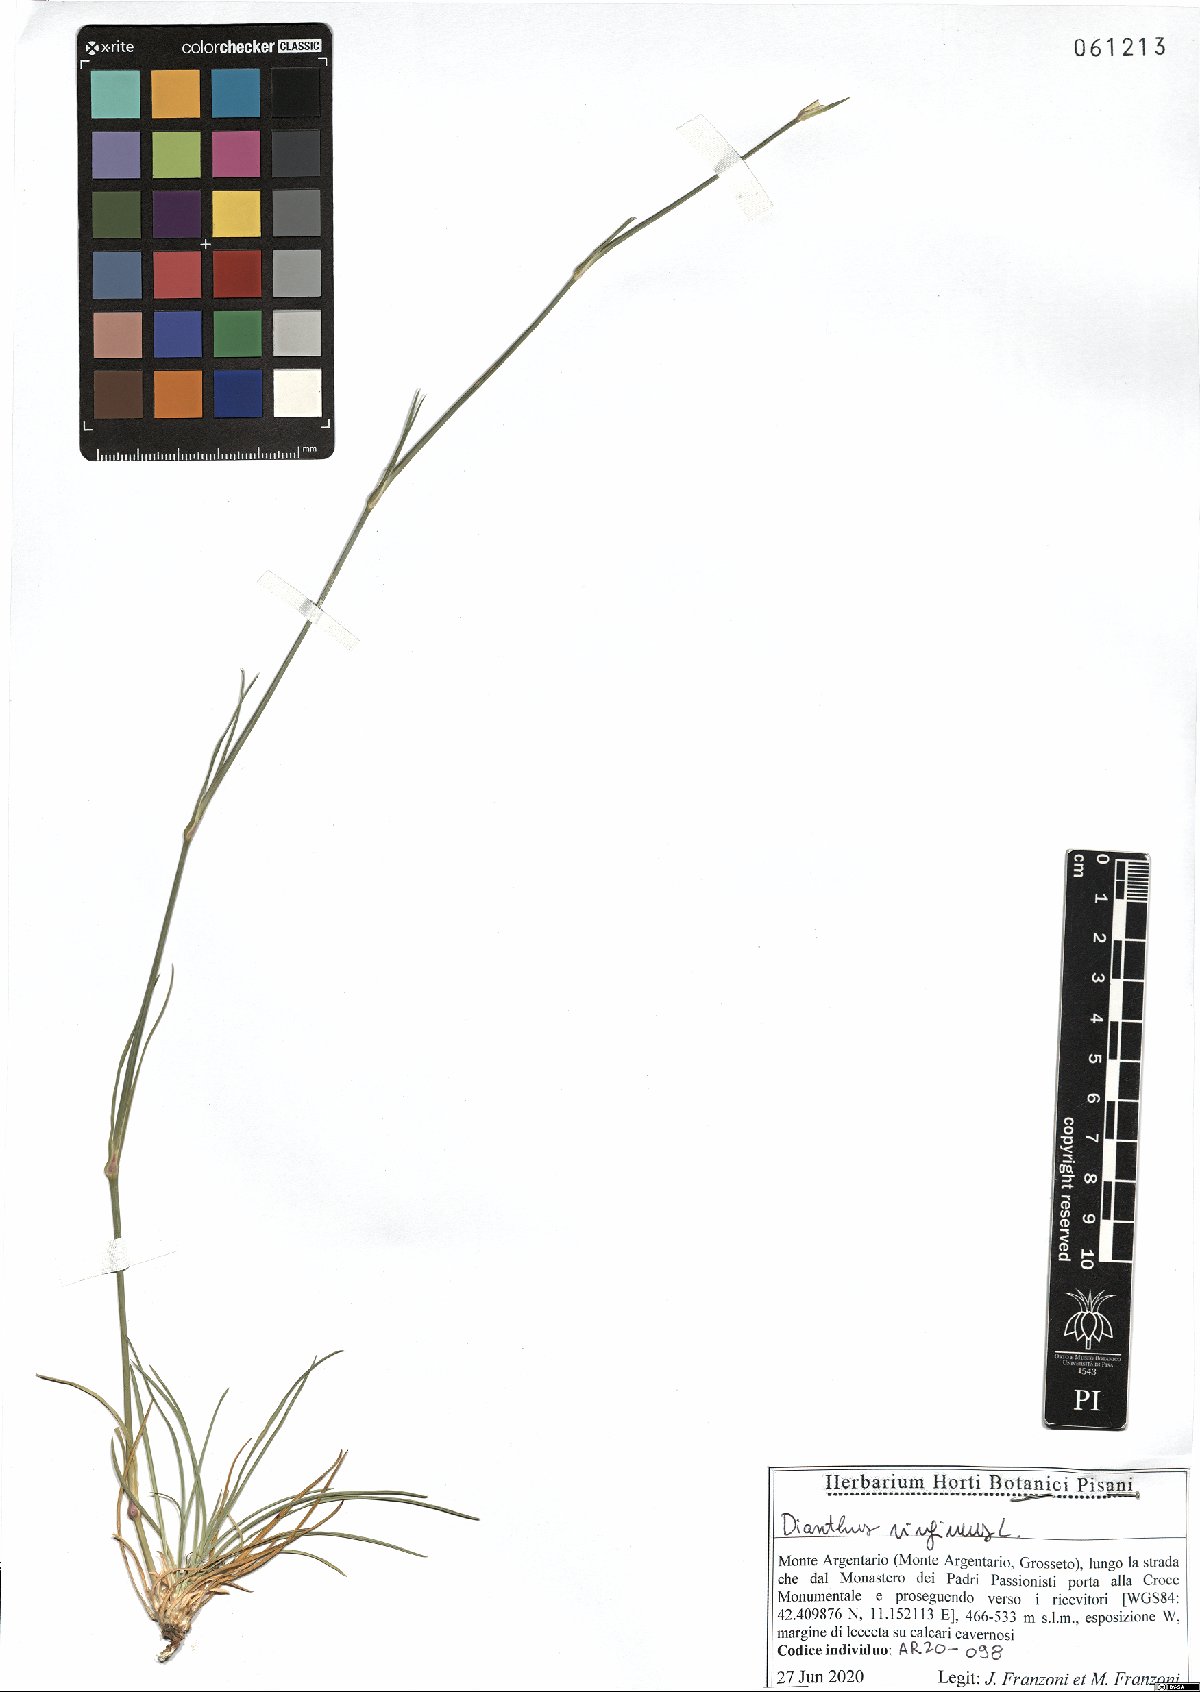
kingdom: Plantae
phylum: Tracheophyta
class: Magnoliopsida
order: Caryophyllales
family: Caryophyllaceae
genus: Dianthus
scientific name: Dianthus virgineus
